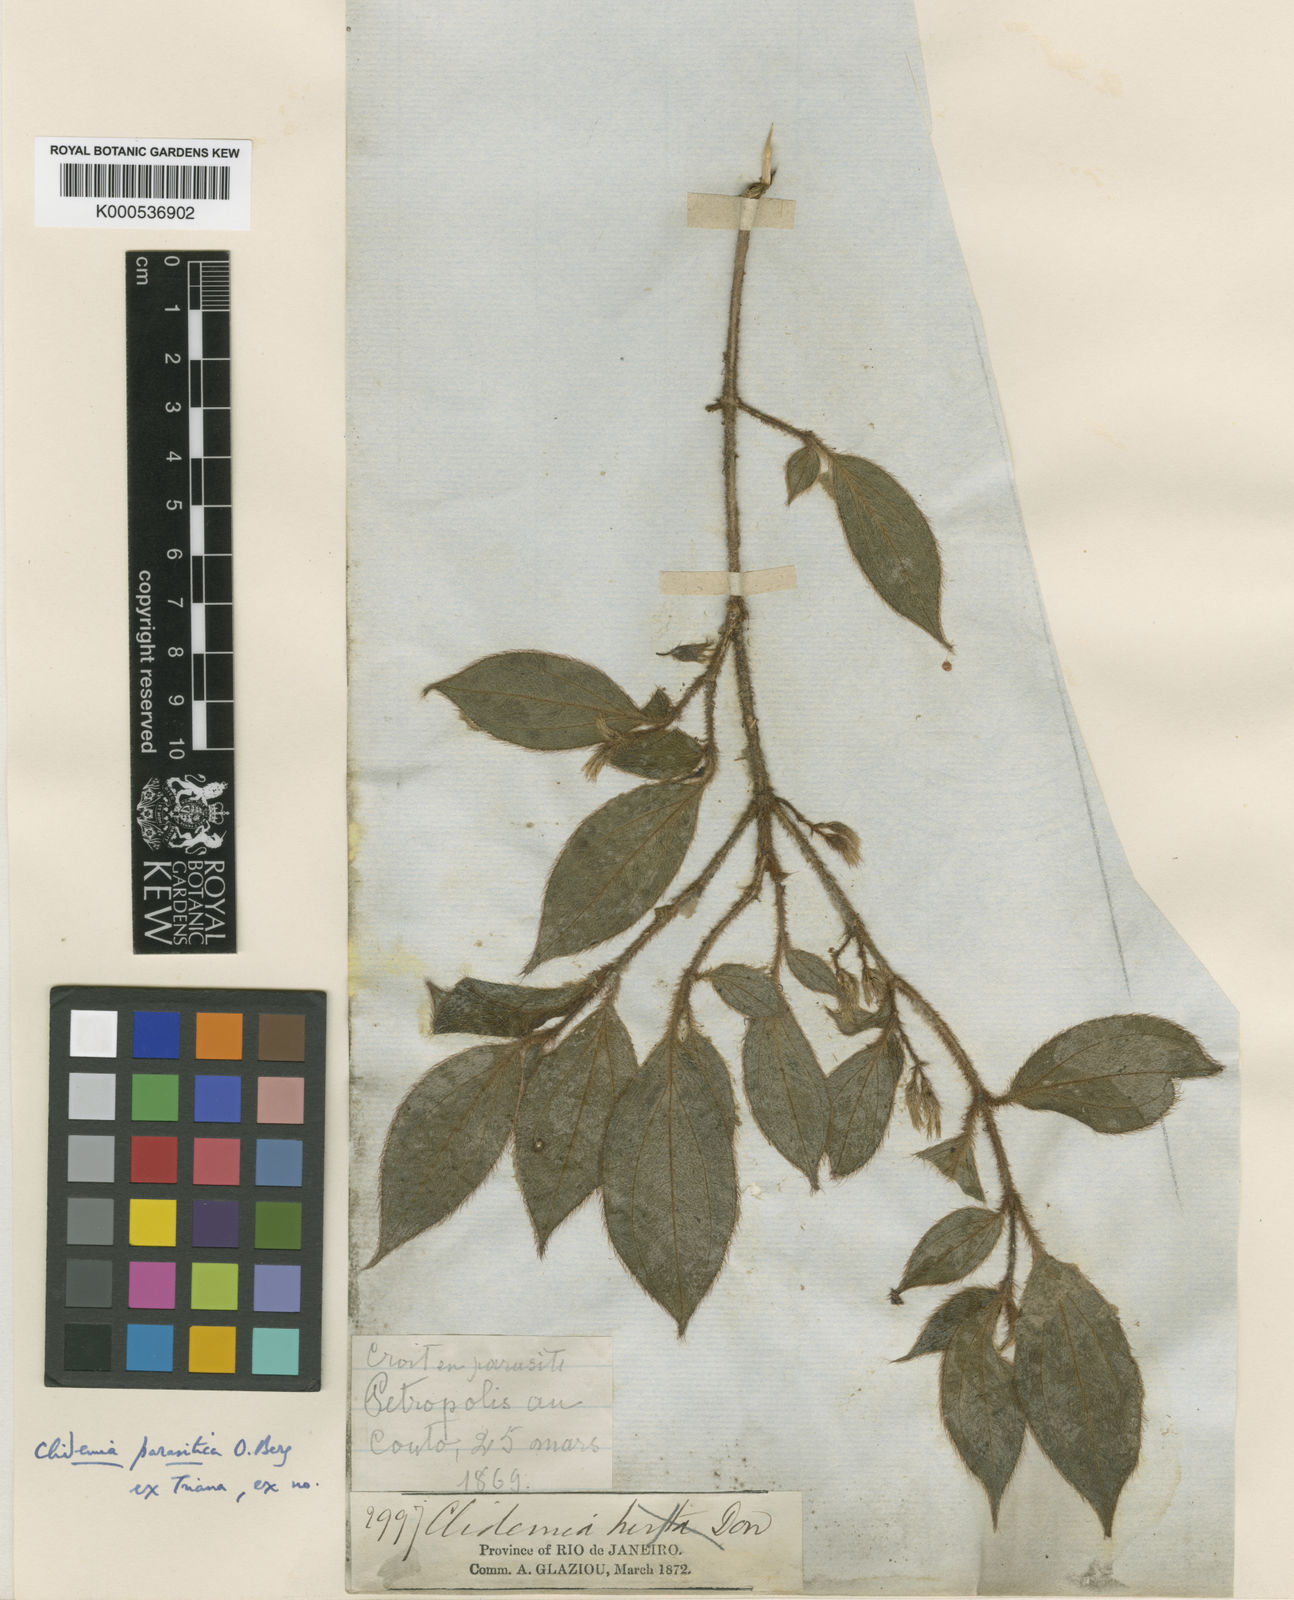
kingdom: Plantae
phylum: Tracheophyta
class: Magnoliopsida
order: Myrtales
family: Melastomataceae
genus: Miconia
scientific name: Miconia parasitica
